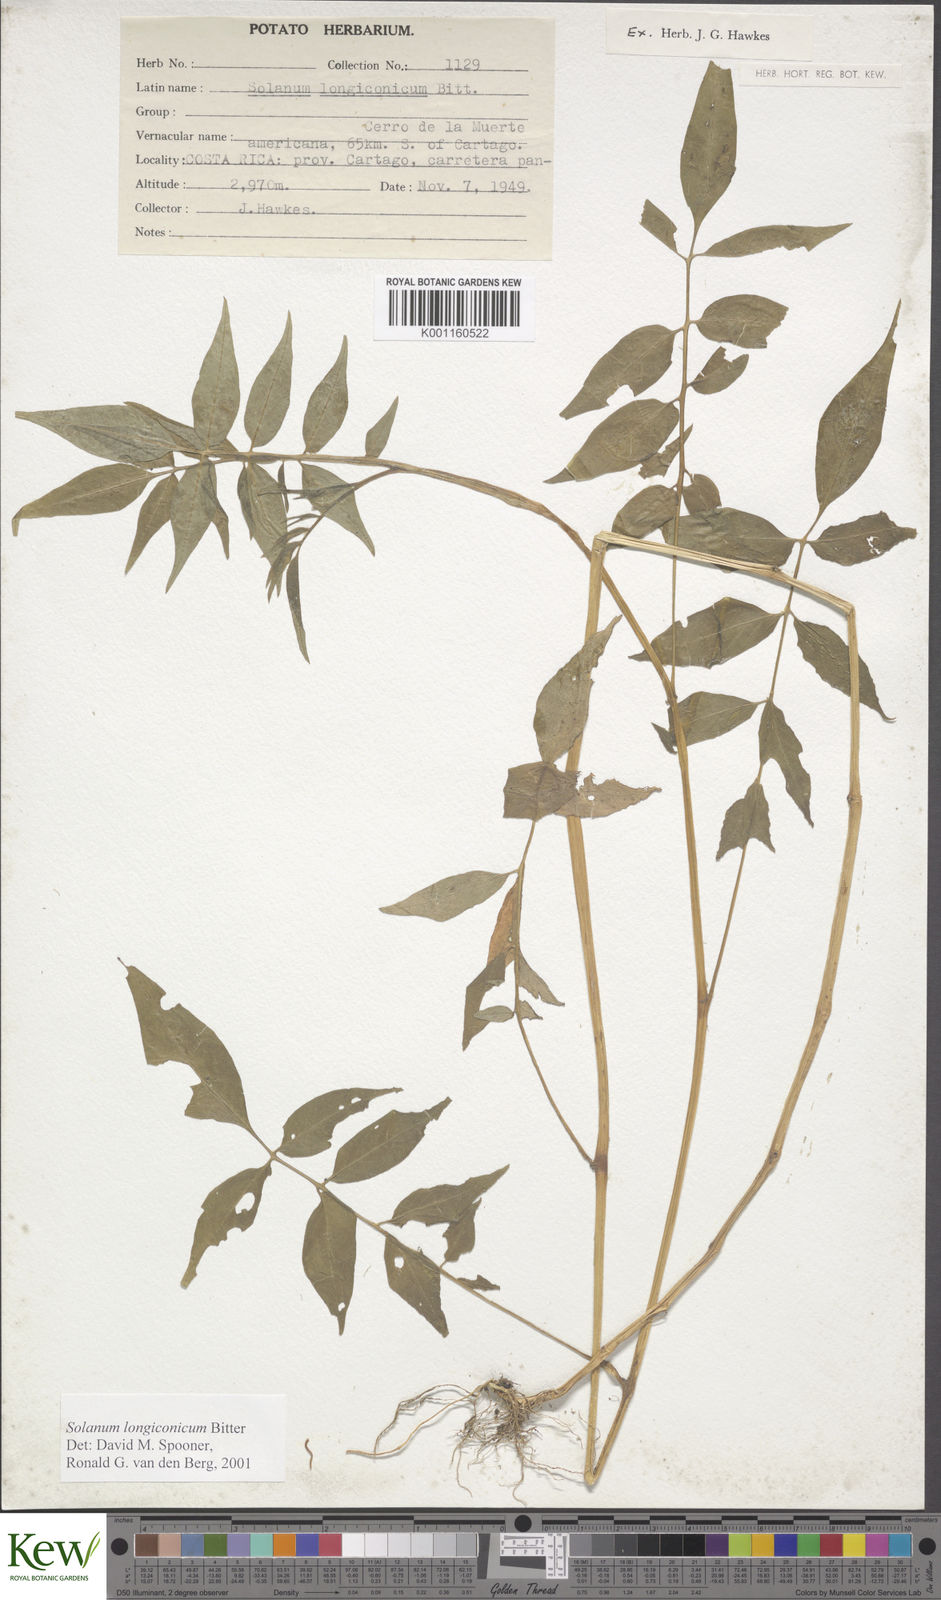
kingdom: Plantae
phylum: Tracheophyta
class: Magnoliopsida
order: Solanales
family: Solanaceae
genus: Solanum
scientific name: Solanum longiconicum
